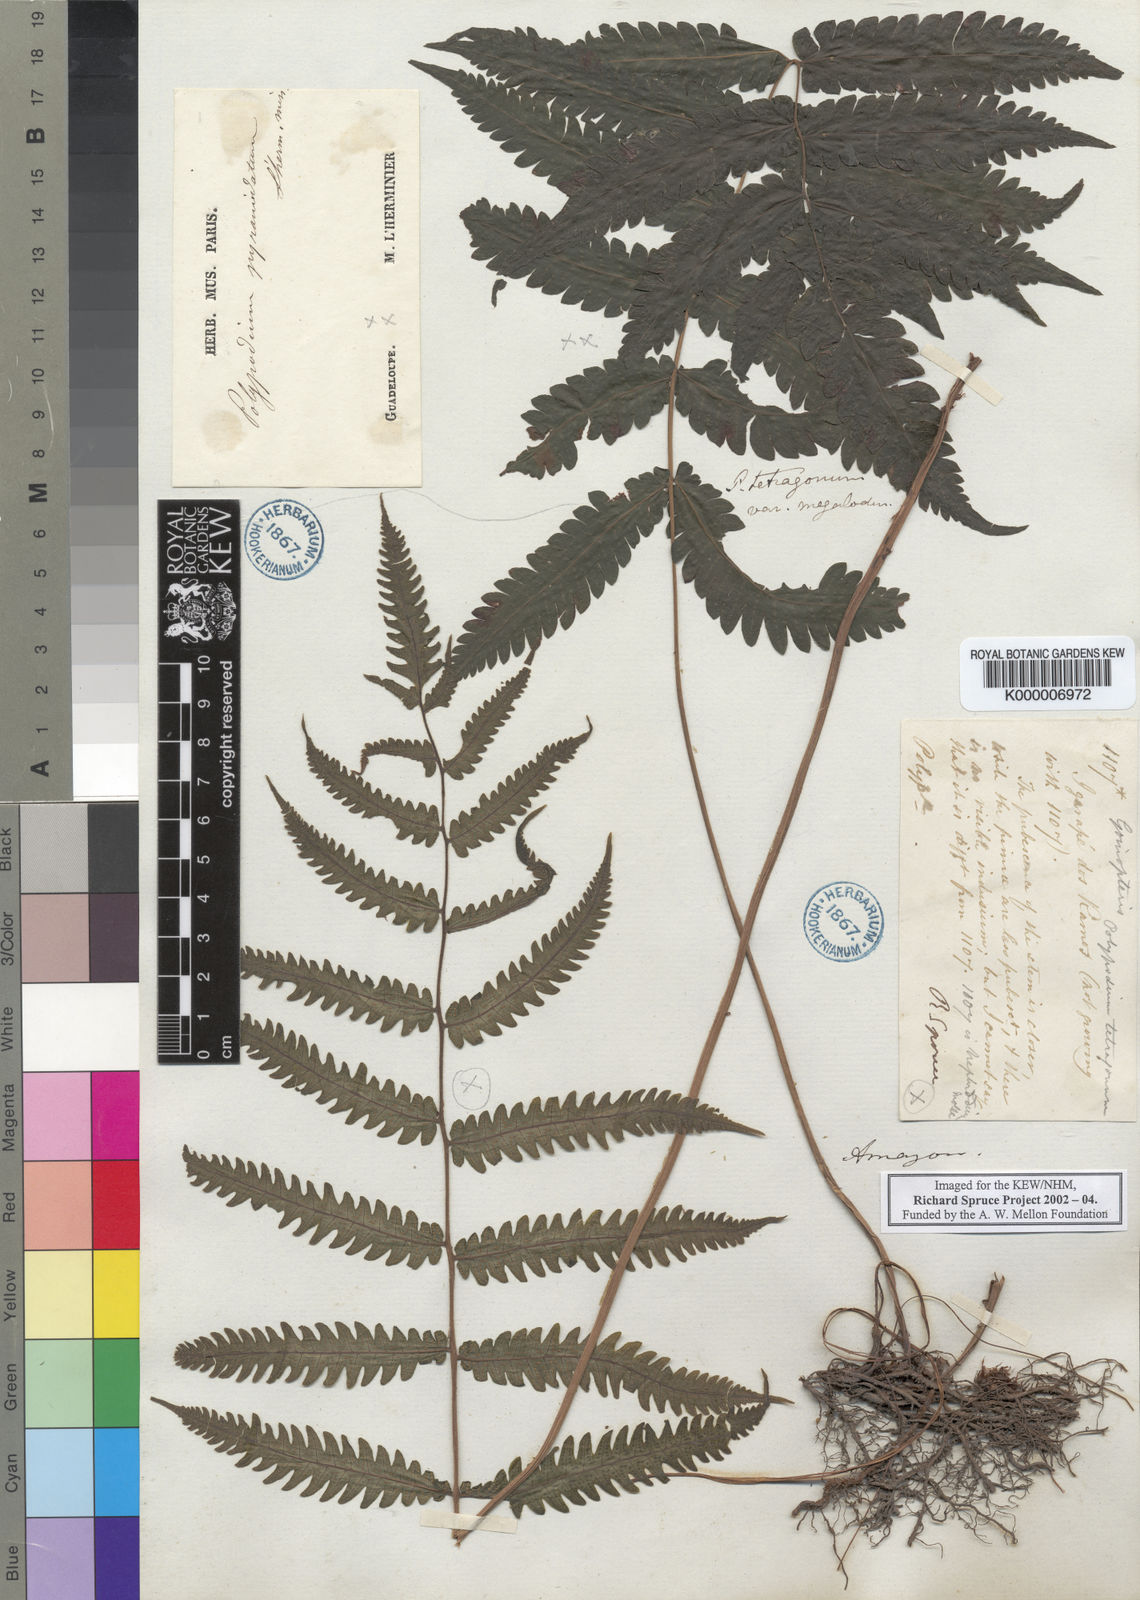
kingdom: Plantae
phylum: Tracheophyta
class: Polypodiopsida
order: Polypodiales
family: Thelypteridaceae
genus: Goniopteris
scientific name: Goniopteris tetragona
